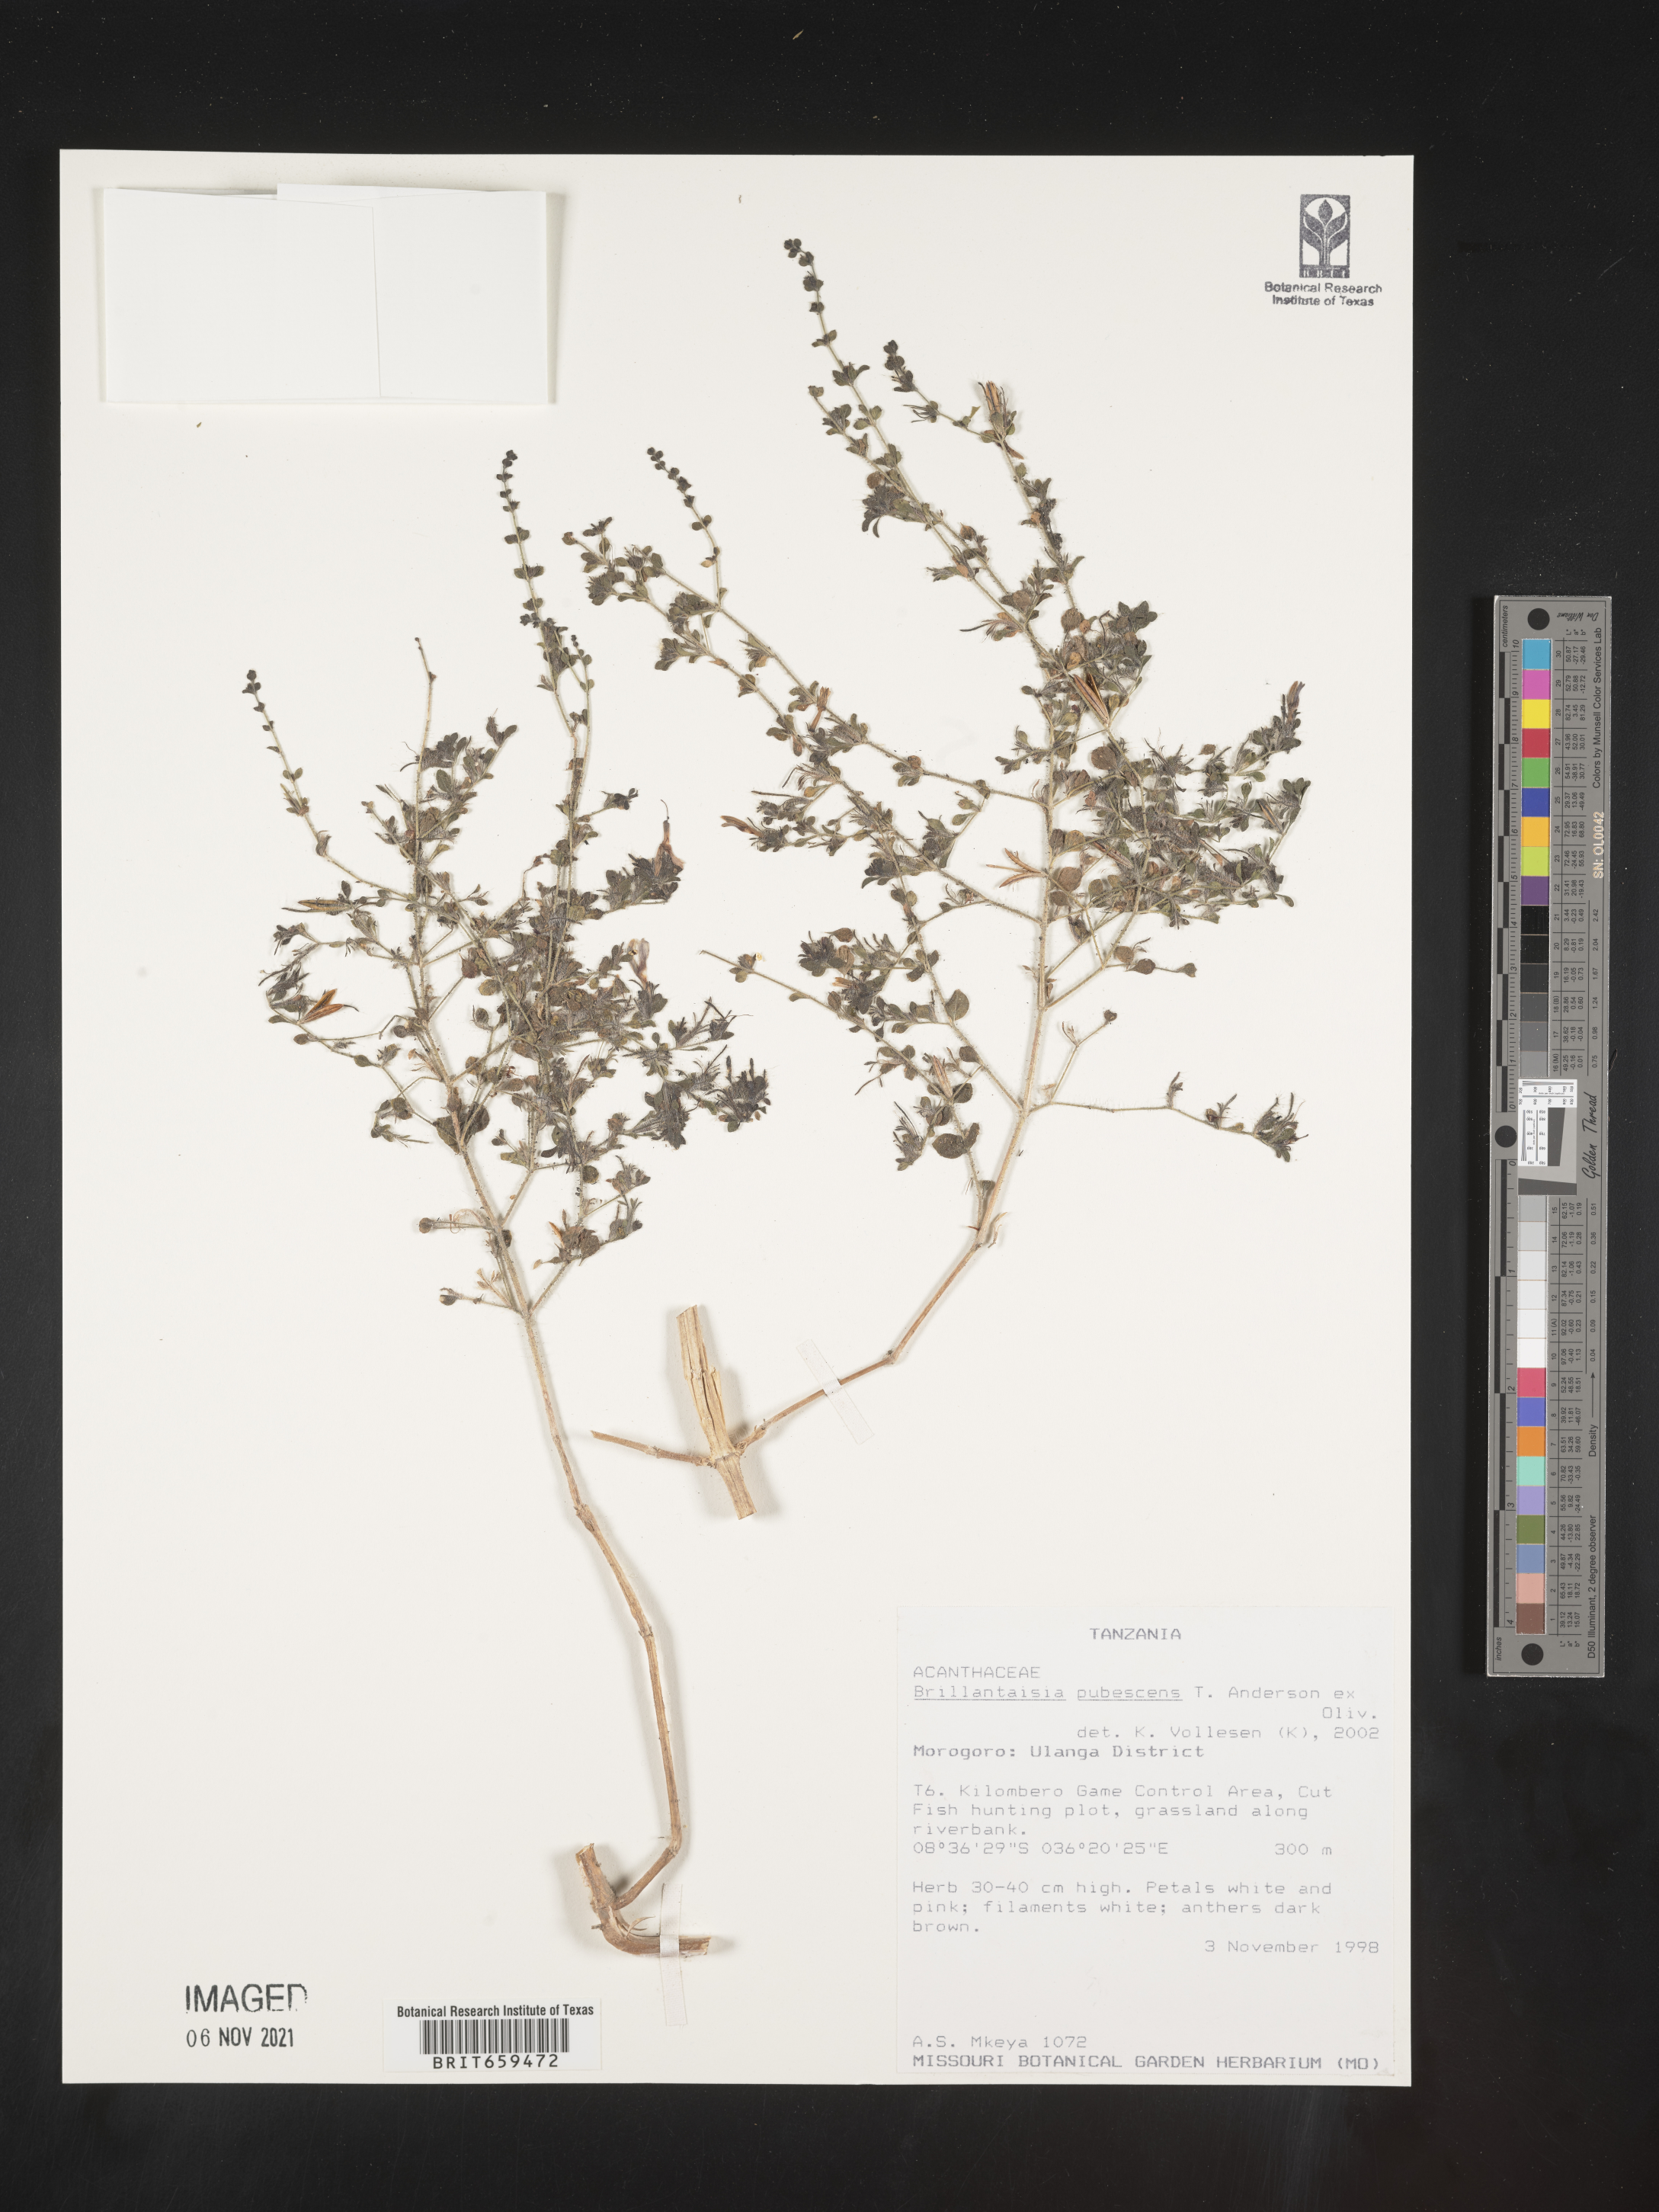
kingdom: Plantae
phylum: Tracheophyta
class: Magnoliopsida
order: Lamiales
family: Acanthaceae
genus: Brillantaisia
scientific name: Brillantaisia pubescens
